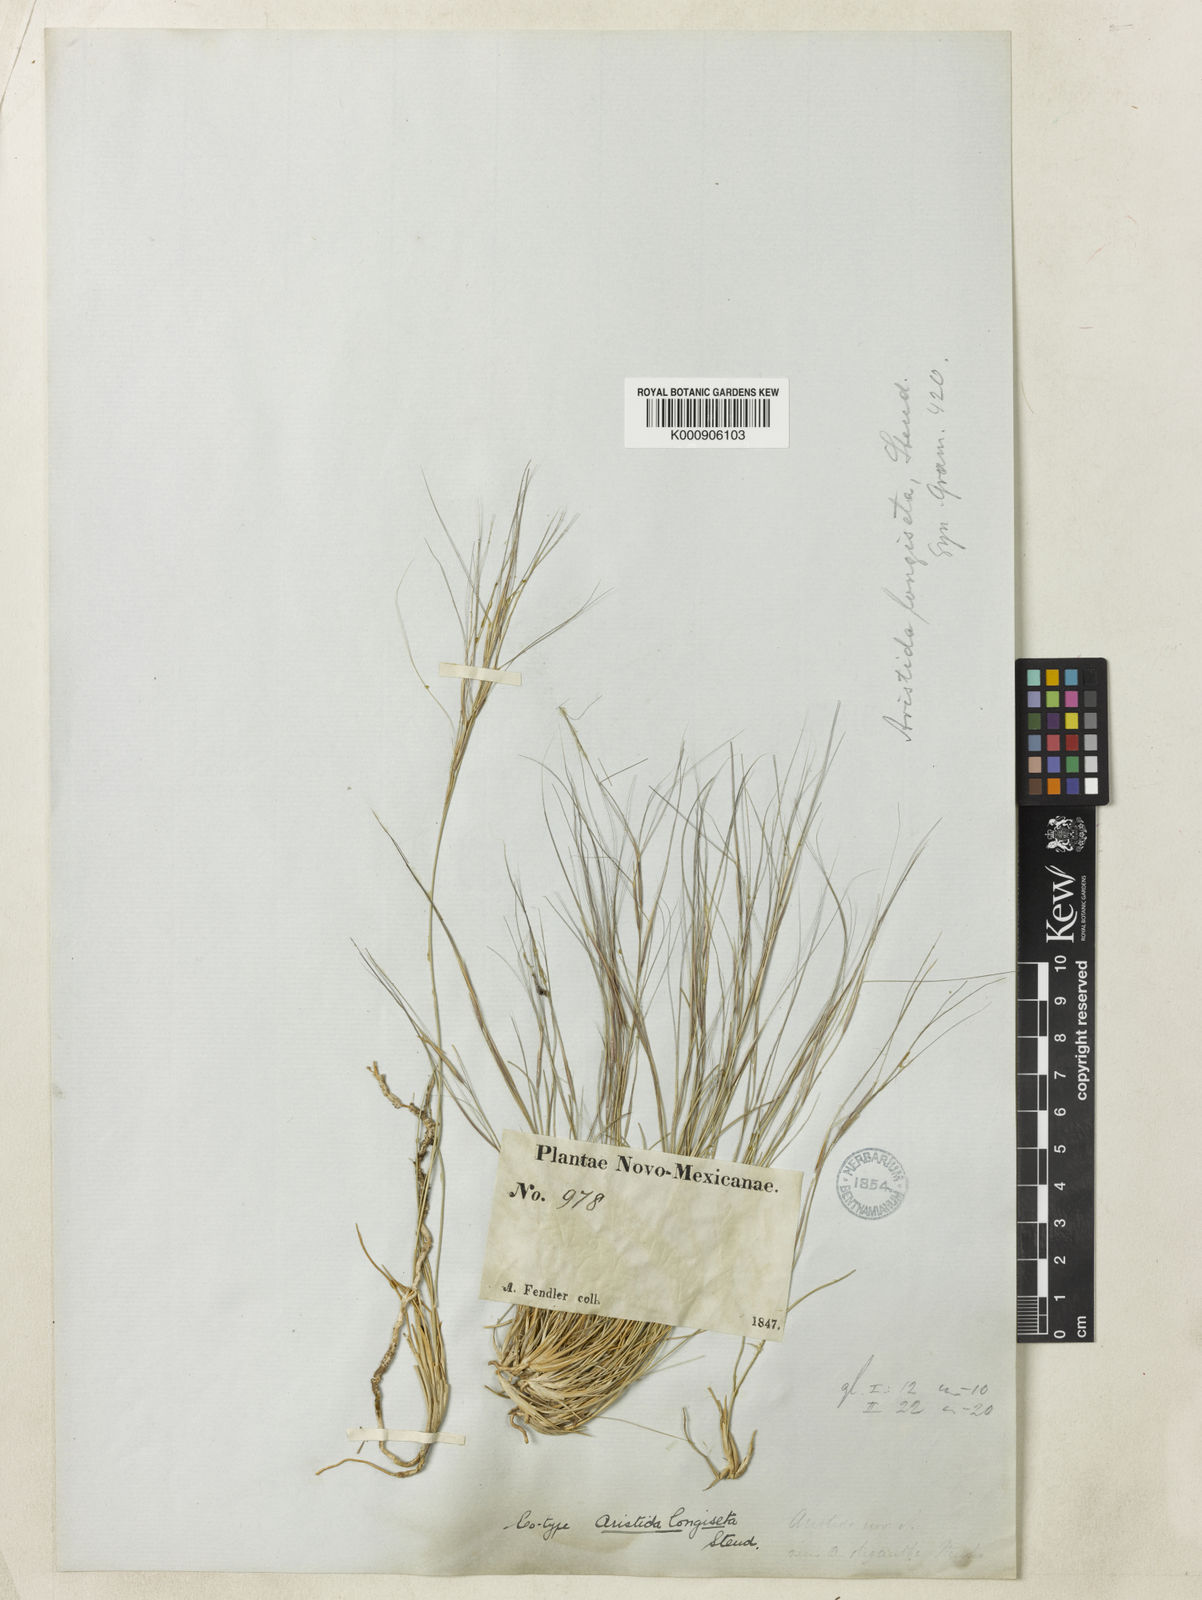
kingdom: Plantae
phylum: Tracheophyta
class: Liliopsida
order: Poales
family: Poaceae
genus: Aristida
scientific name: Aristida longiseta
